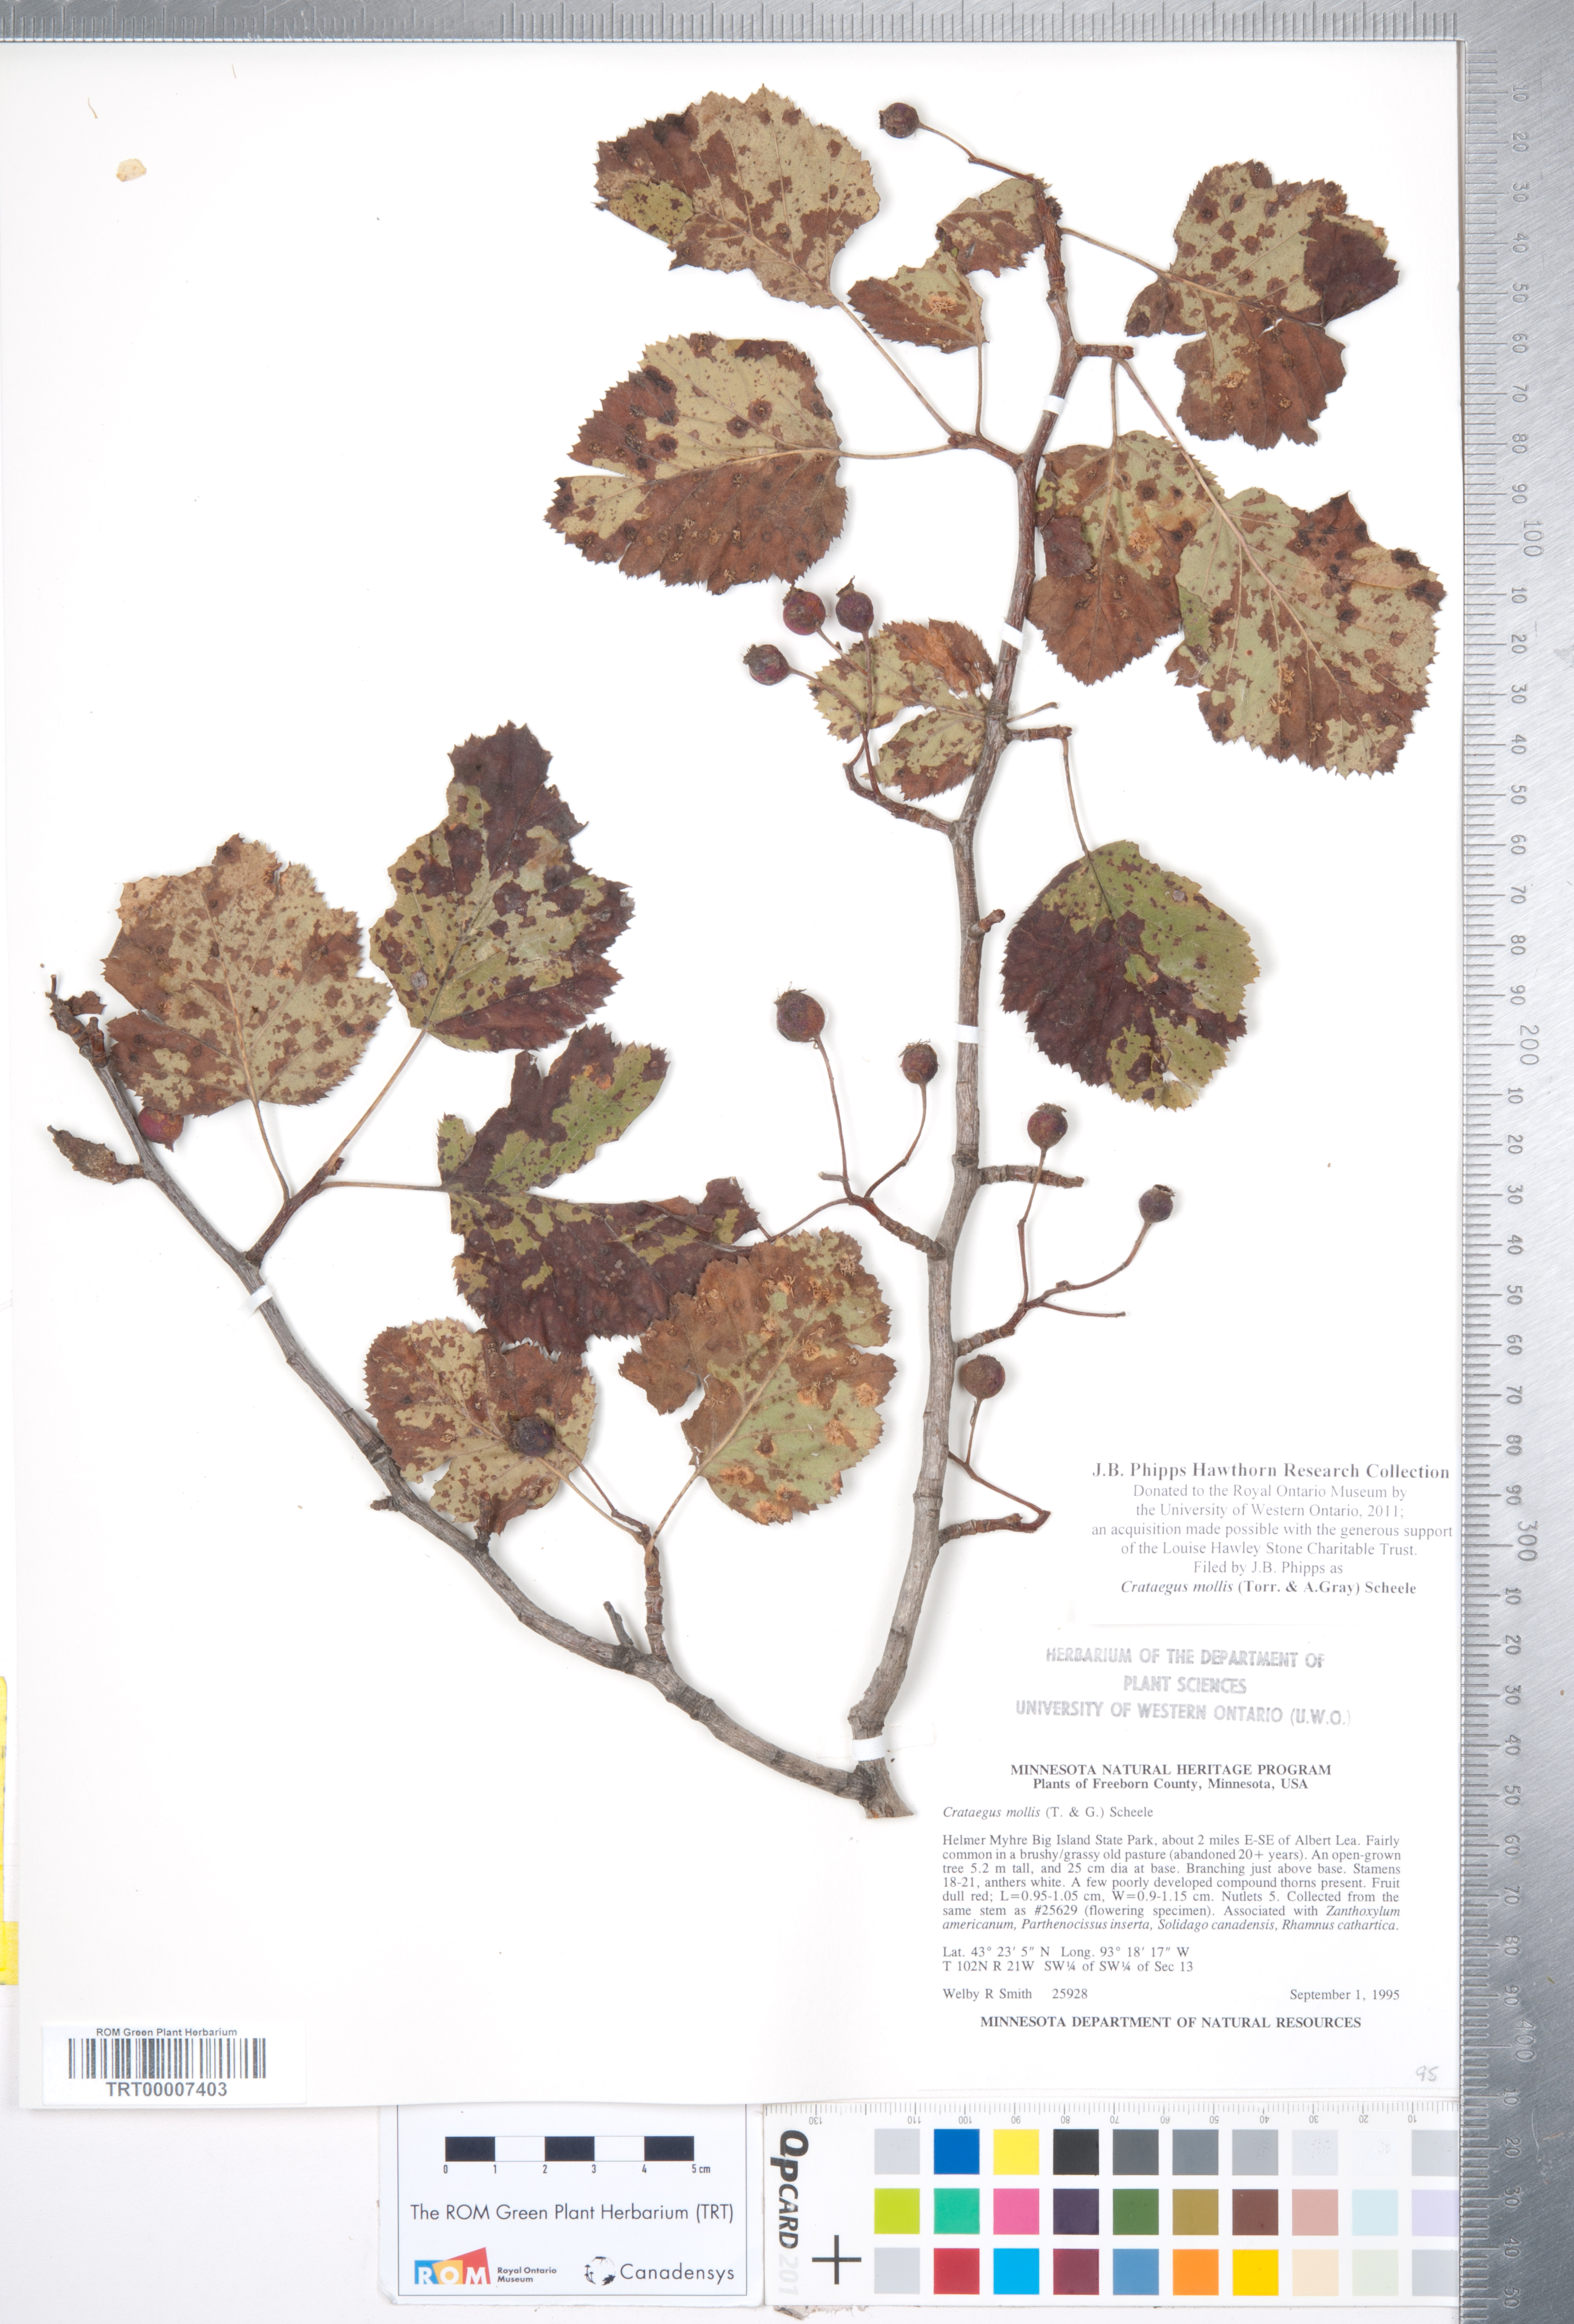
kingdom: Plantae
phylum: Tracheophyta
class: Magnoliopsida
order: Rosales
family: Rosaceae
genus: Crataegus
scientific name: Crataegus mollis
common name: Downy hawthorn
